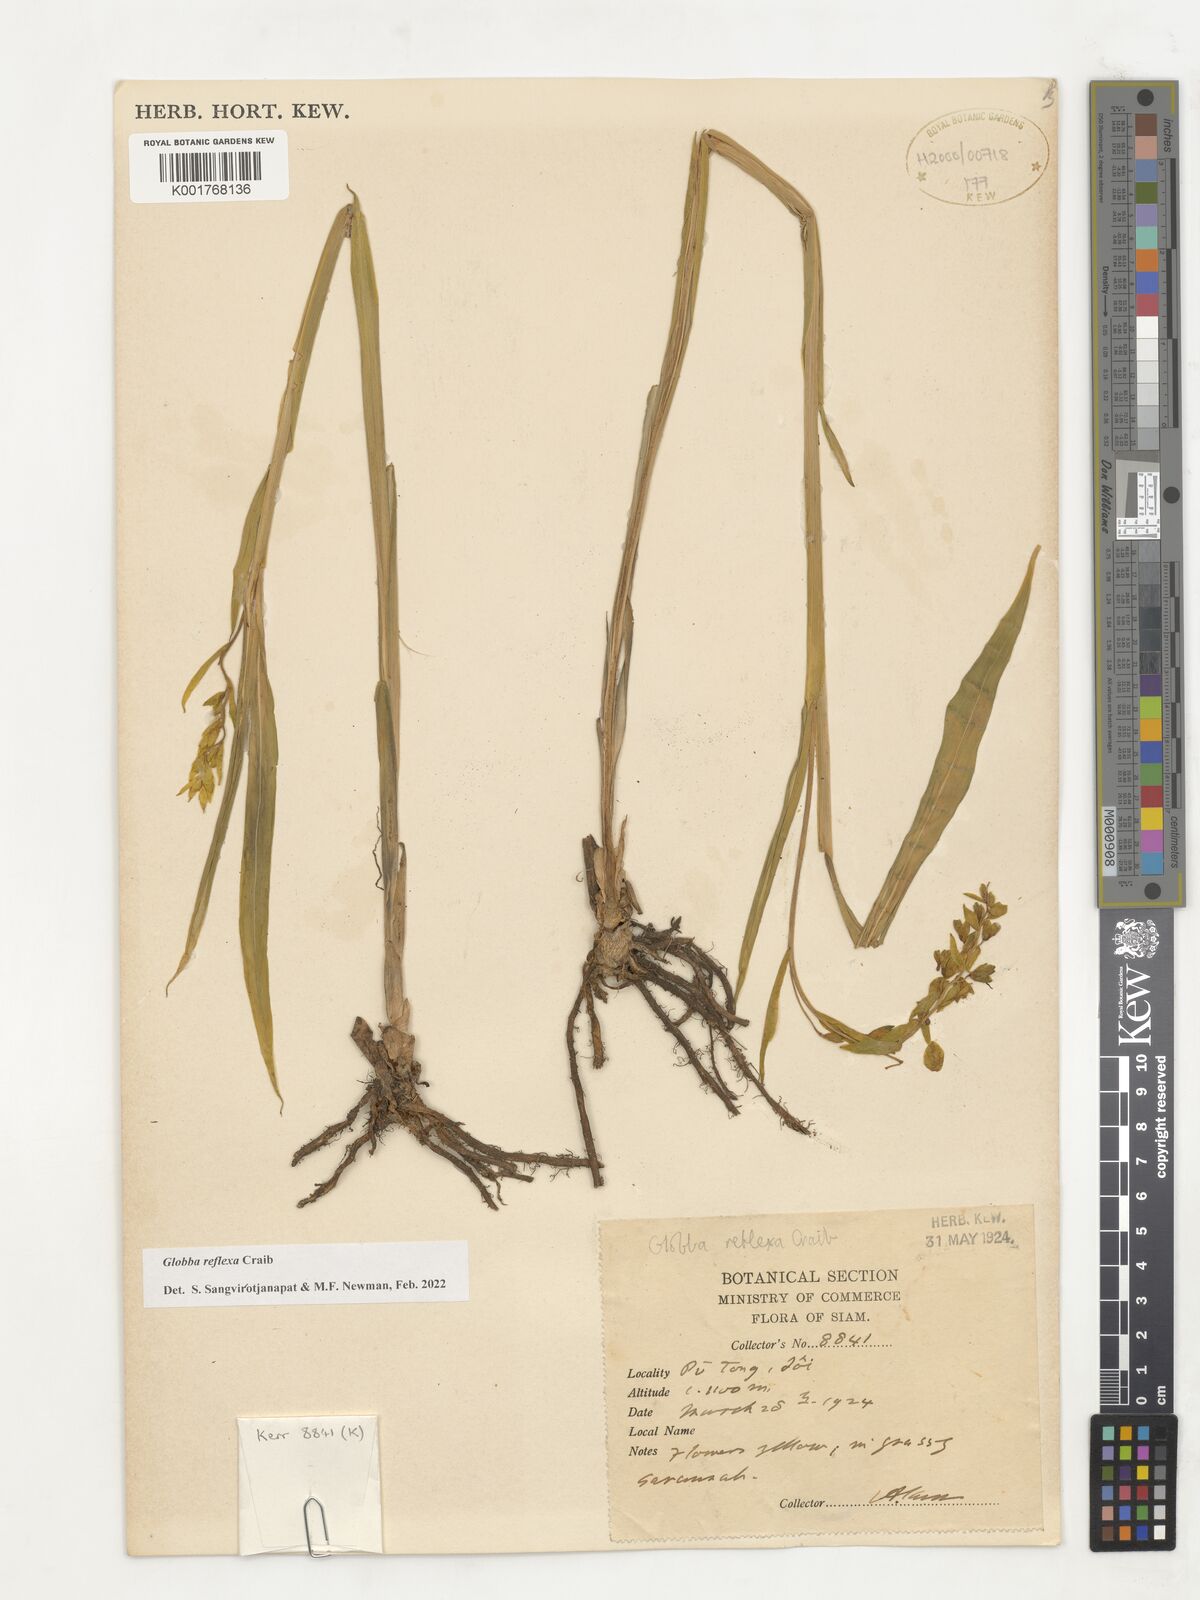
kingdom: Plantae
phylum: Tracheophyta
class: Liliopsida
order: Zingiberales
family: Zingiberaceae
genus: Globba
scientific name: Globba reflexa
